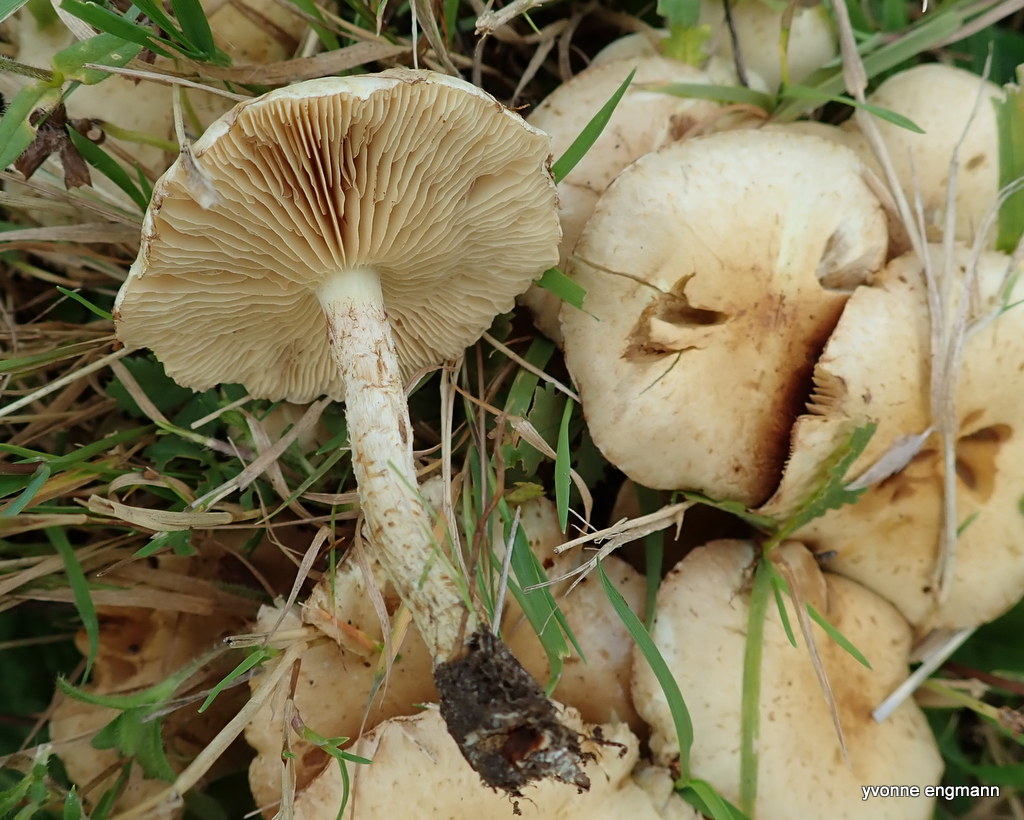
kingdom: Fungi
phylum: Basidiomycota
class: Agaricomycetes
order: Agaricales
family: Strophariaceae
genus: Pholiota
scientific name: Pholiota gummosa
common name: grøngul skælhat
